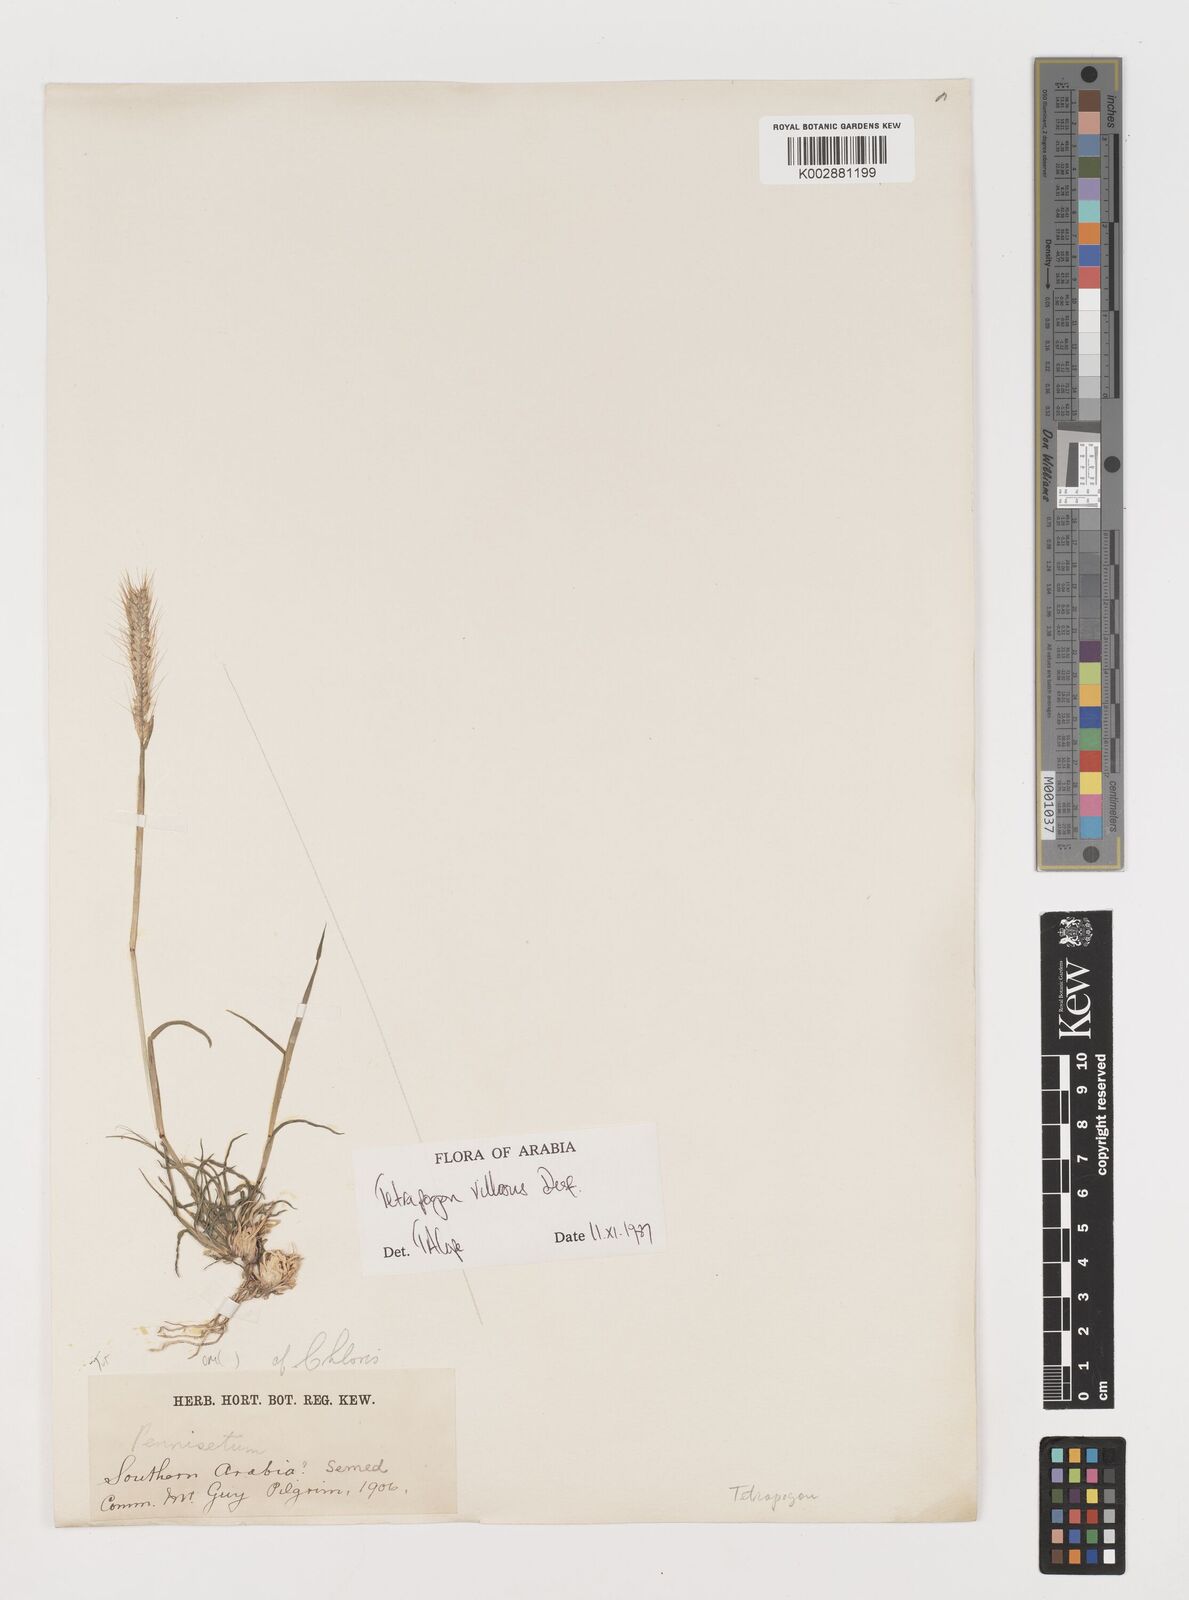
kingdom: Plantae
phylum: Tracheophyta
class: Liliopsida
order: Poales
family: Poaceae
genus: Tetrapogon
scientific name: Tetrapogon villosus
